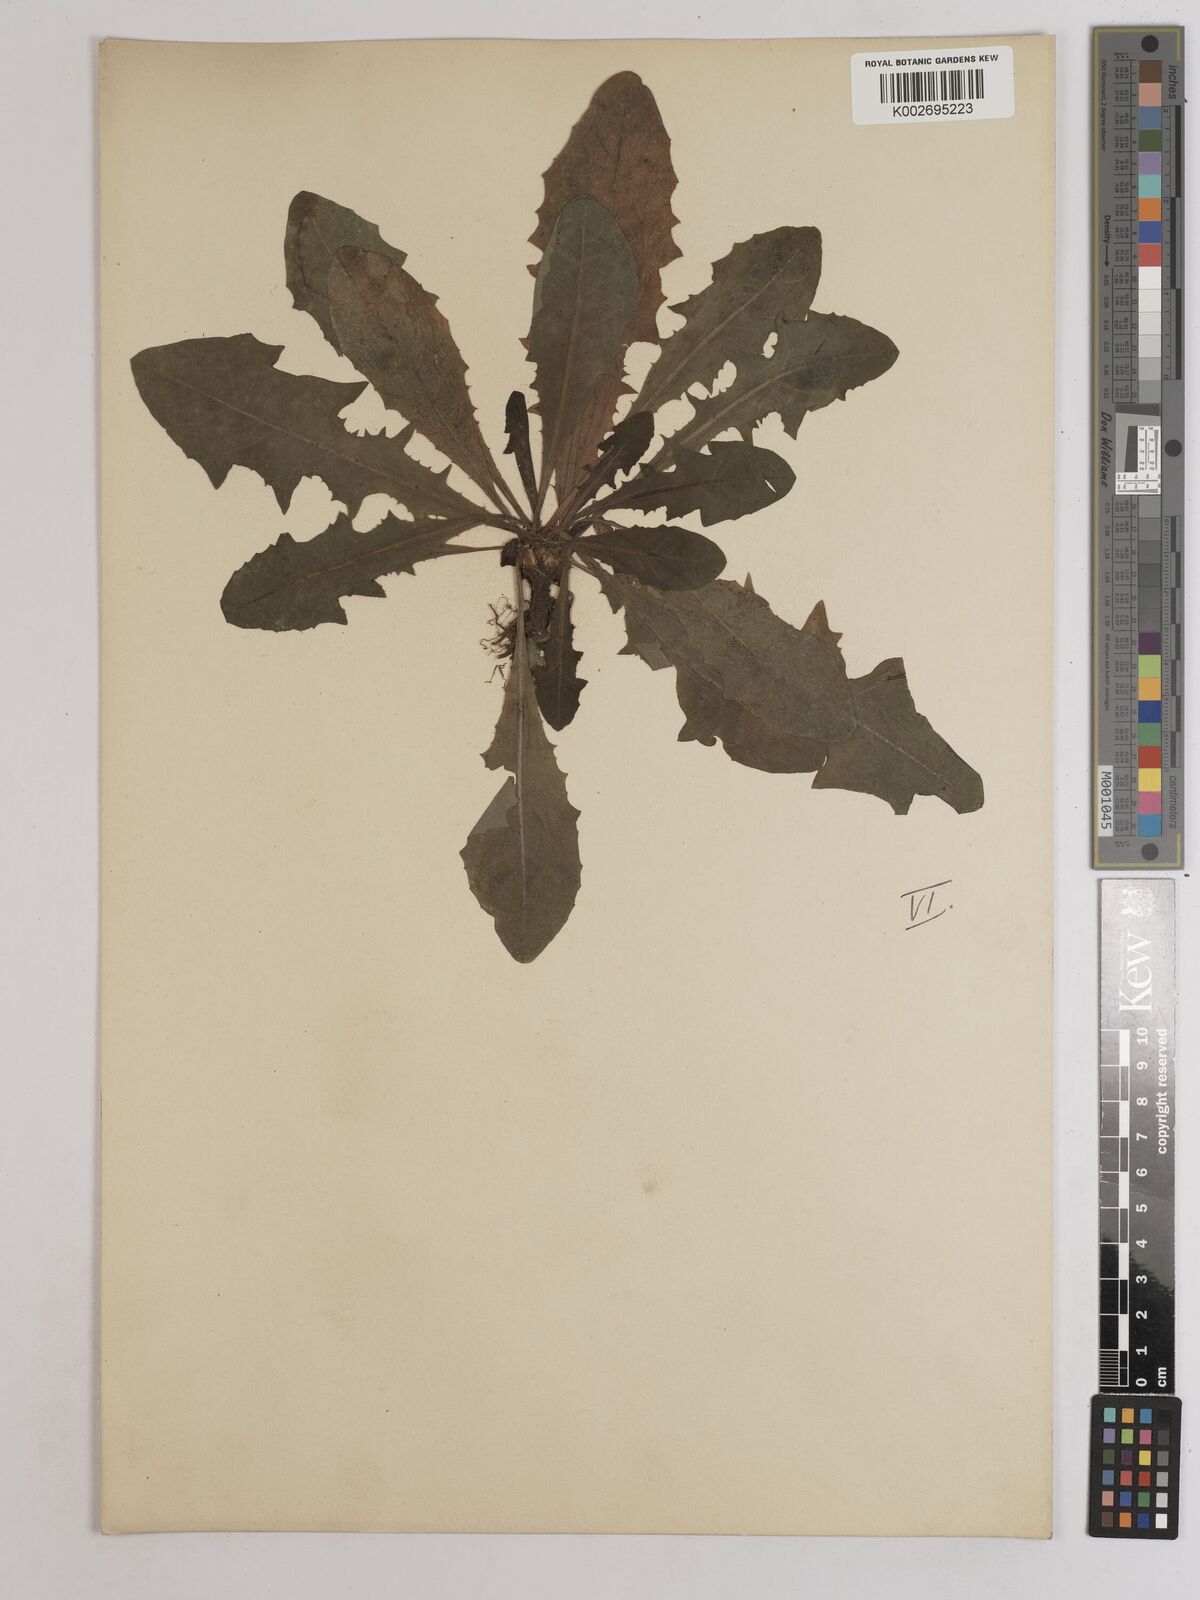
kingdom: Plantae
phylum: Tracheophyta
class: Magnoliopsida
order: Asterales
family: Asteraceae
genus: Taraxacum
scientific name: Taraxacum officinale
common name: Common dandelion
